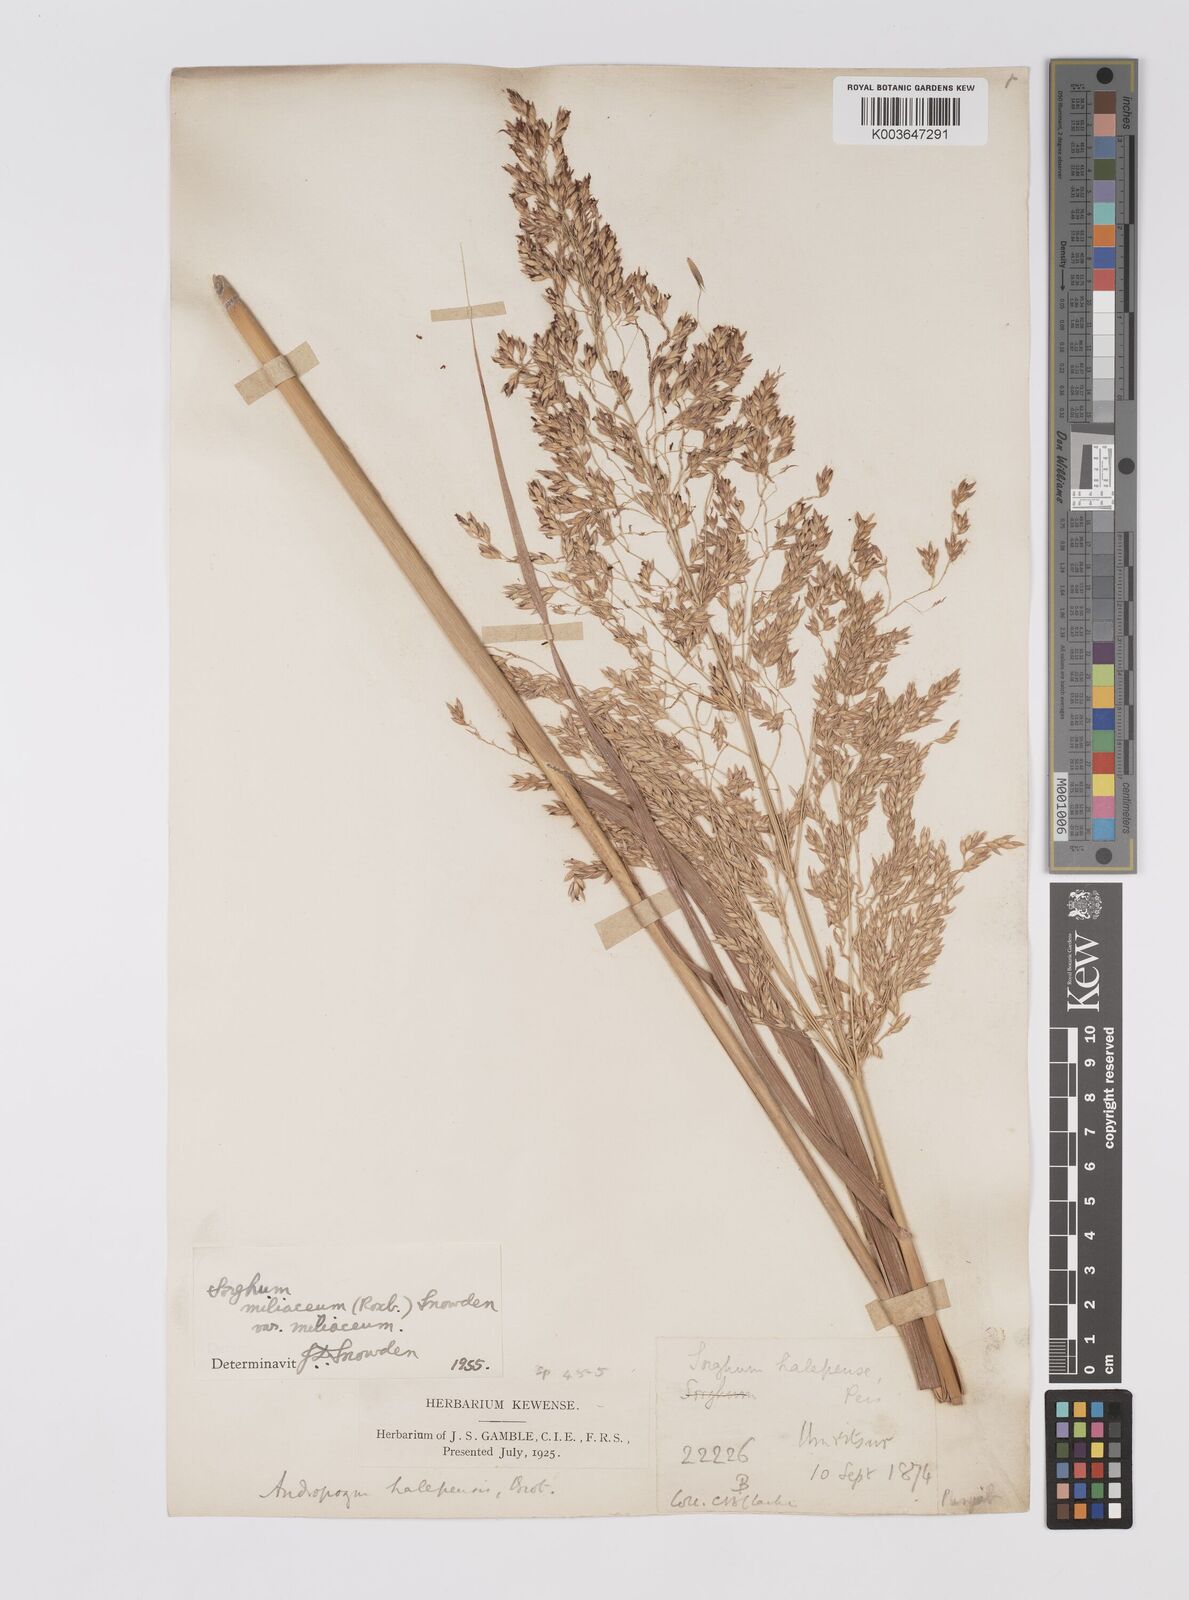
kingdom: Plantae
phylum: Tracheophyta
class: Liliopsida
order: Poales
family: Poaceae
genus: Sorghum
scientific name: Sorghum halepense
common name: Johnson-grass
